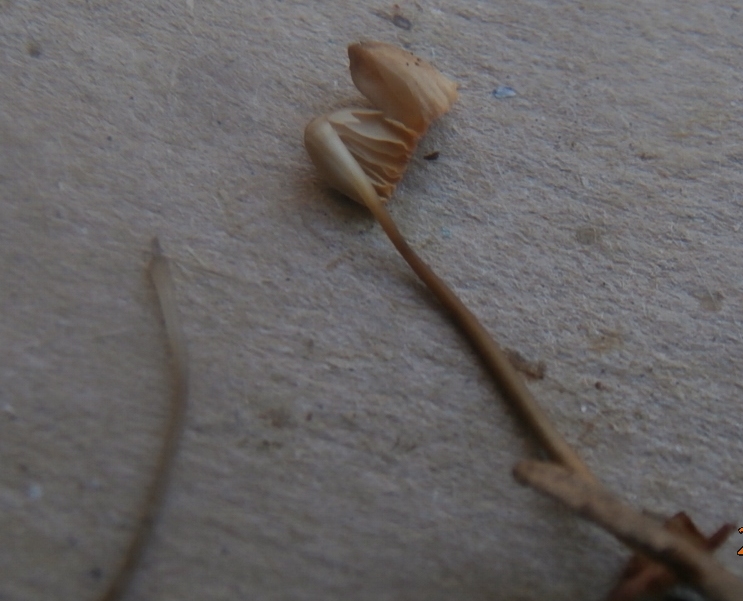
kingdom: Fungi
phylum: Basidiomycota
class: Agaricomycetes
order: Agaricales
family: Mycenaceae
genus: Mycena
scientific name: Mycena metata
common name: rødlig huesvamp
